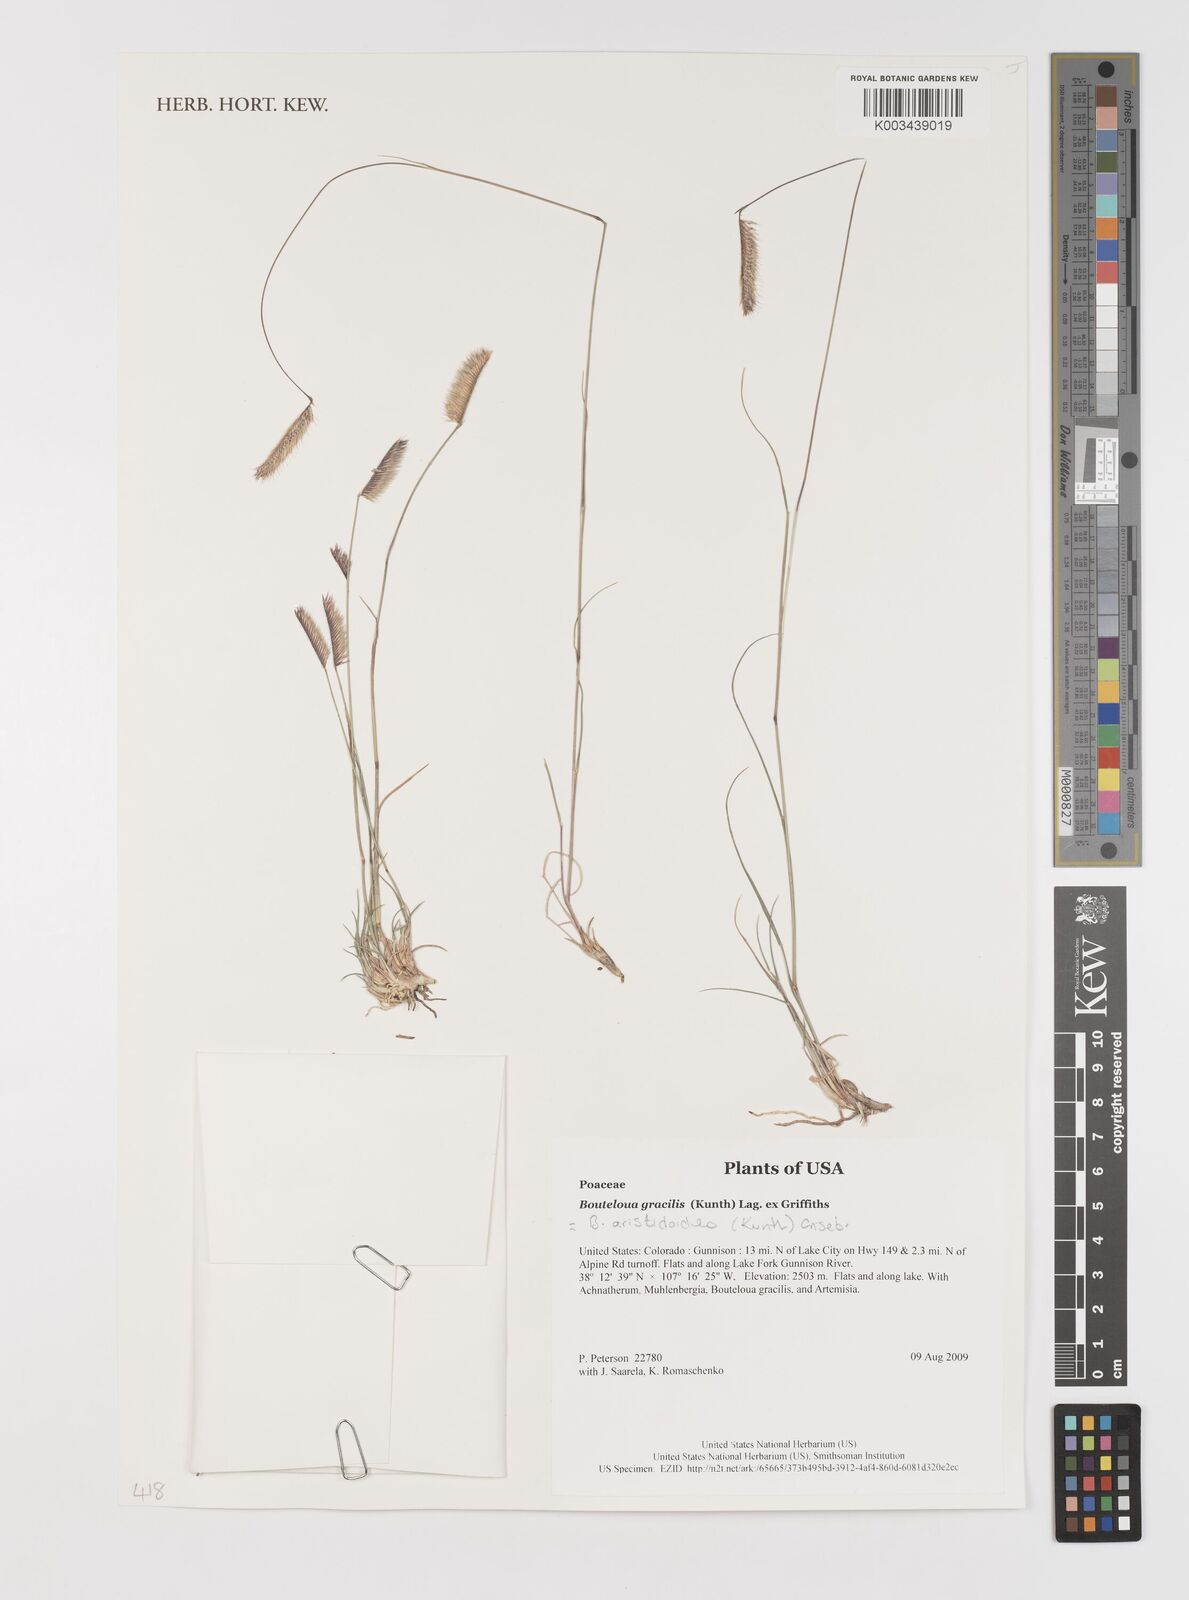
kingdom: Plantae
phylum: Tracheophyta
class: Liliopsida
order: Poales
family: Poaceae
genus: Bouteloua
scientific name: Bouteloua aristidoides
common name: Needle grama
